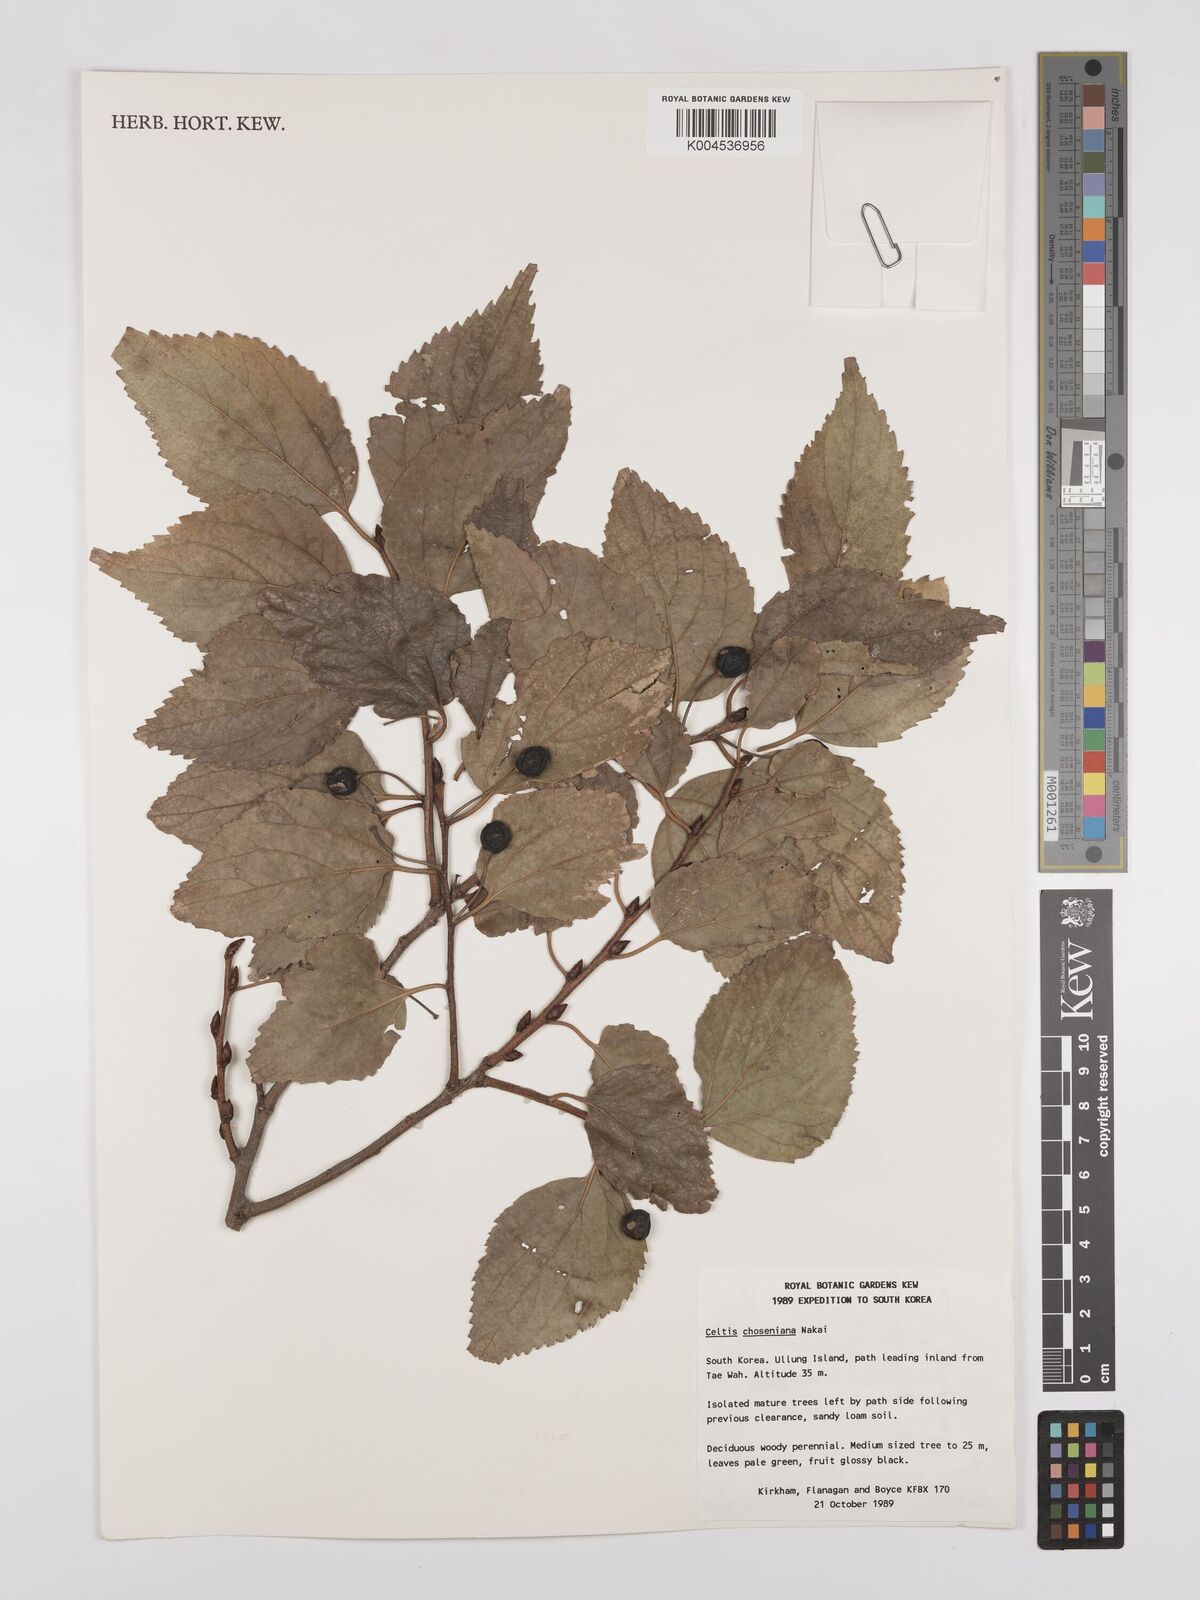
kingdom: Plantae
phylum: Tracheophyta
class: Magnoliopsida
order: Rosales
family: Cannabaceae
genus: Celtis
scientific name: Celtis jessoensis
